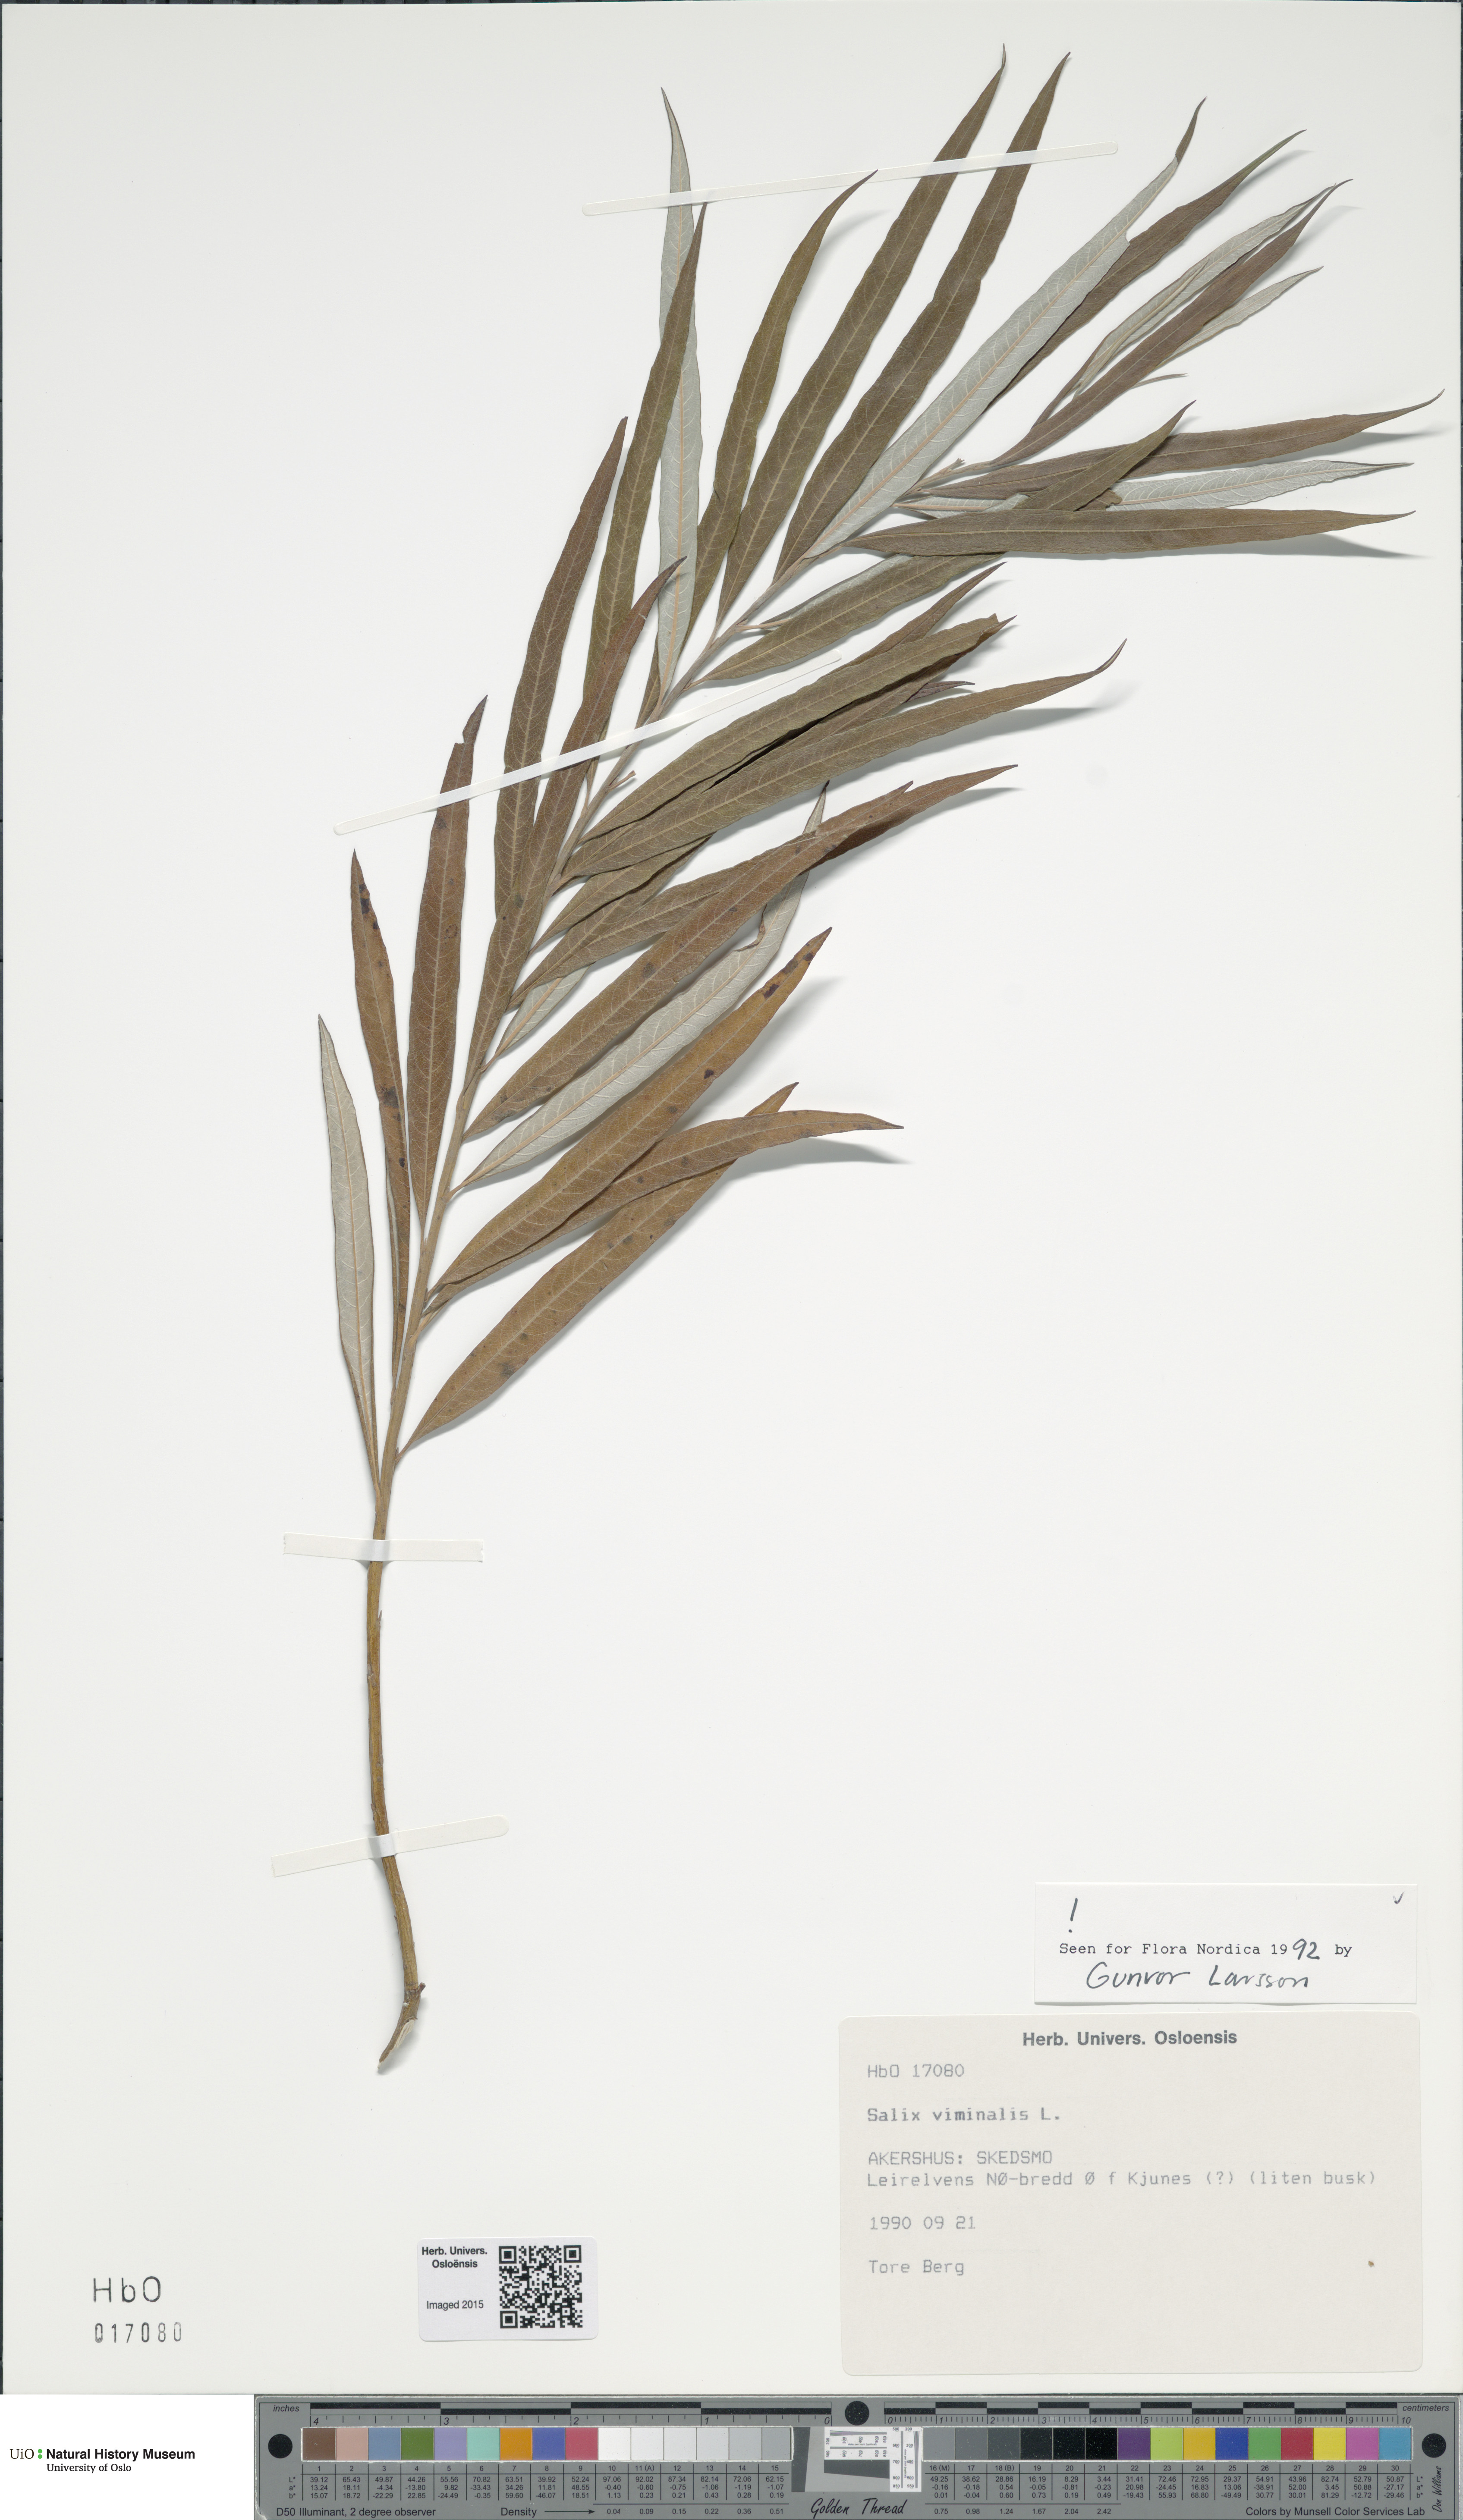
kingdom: Plantae
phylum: Tracheophyta
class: Magnoliopsida
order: Malpighiales
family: Salicaceae
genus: Salix
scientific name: Salix viminalis
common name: Osier
